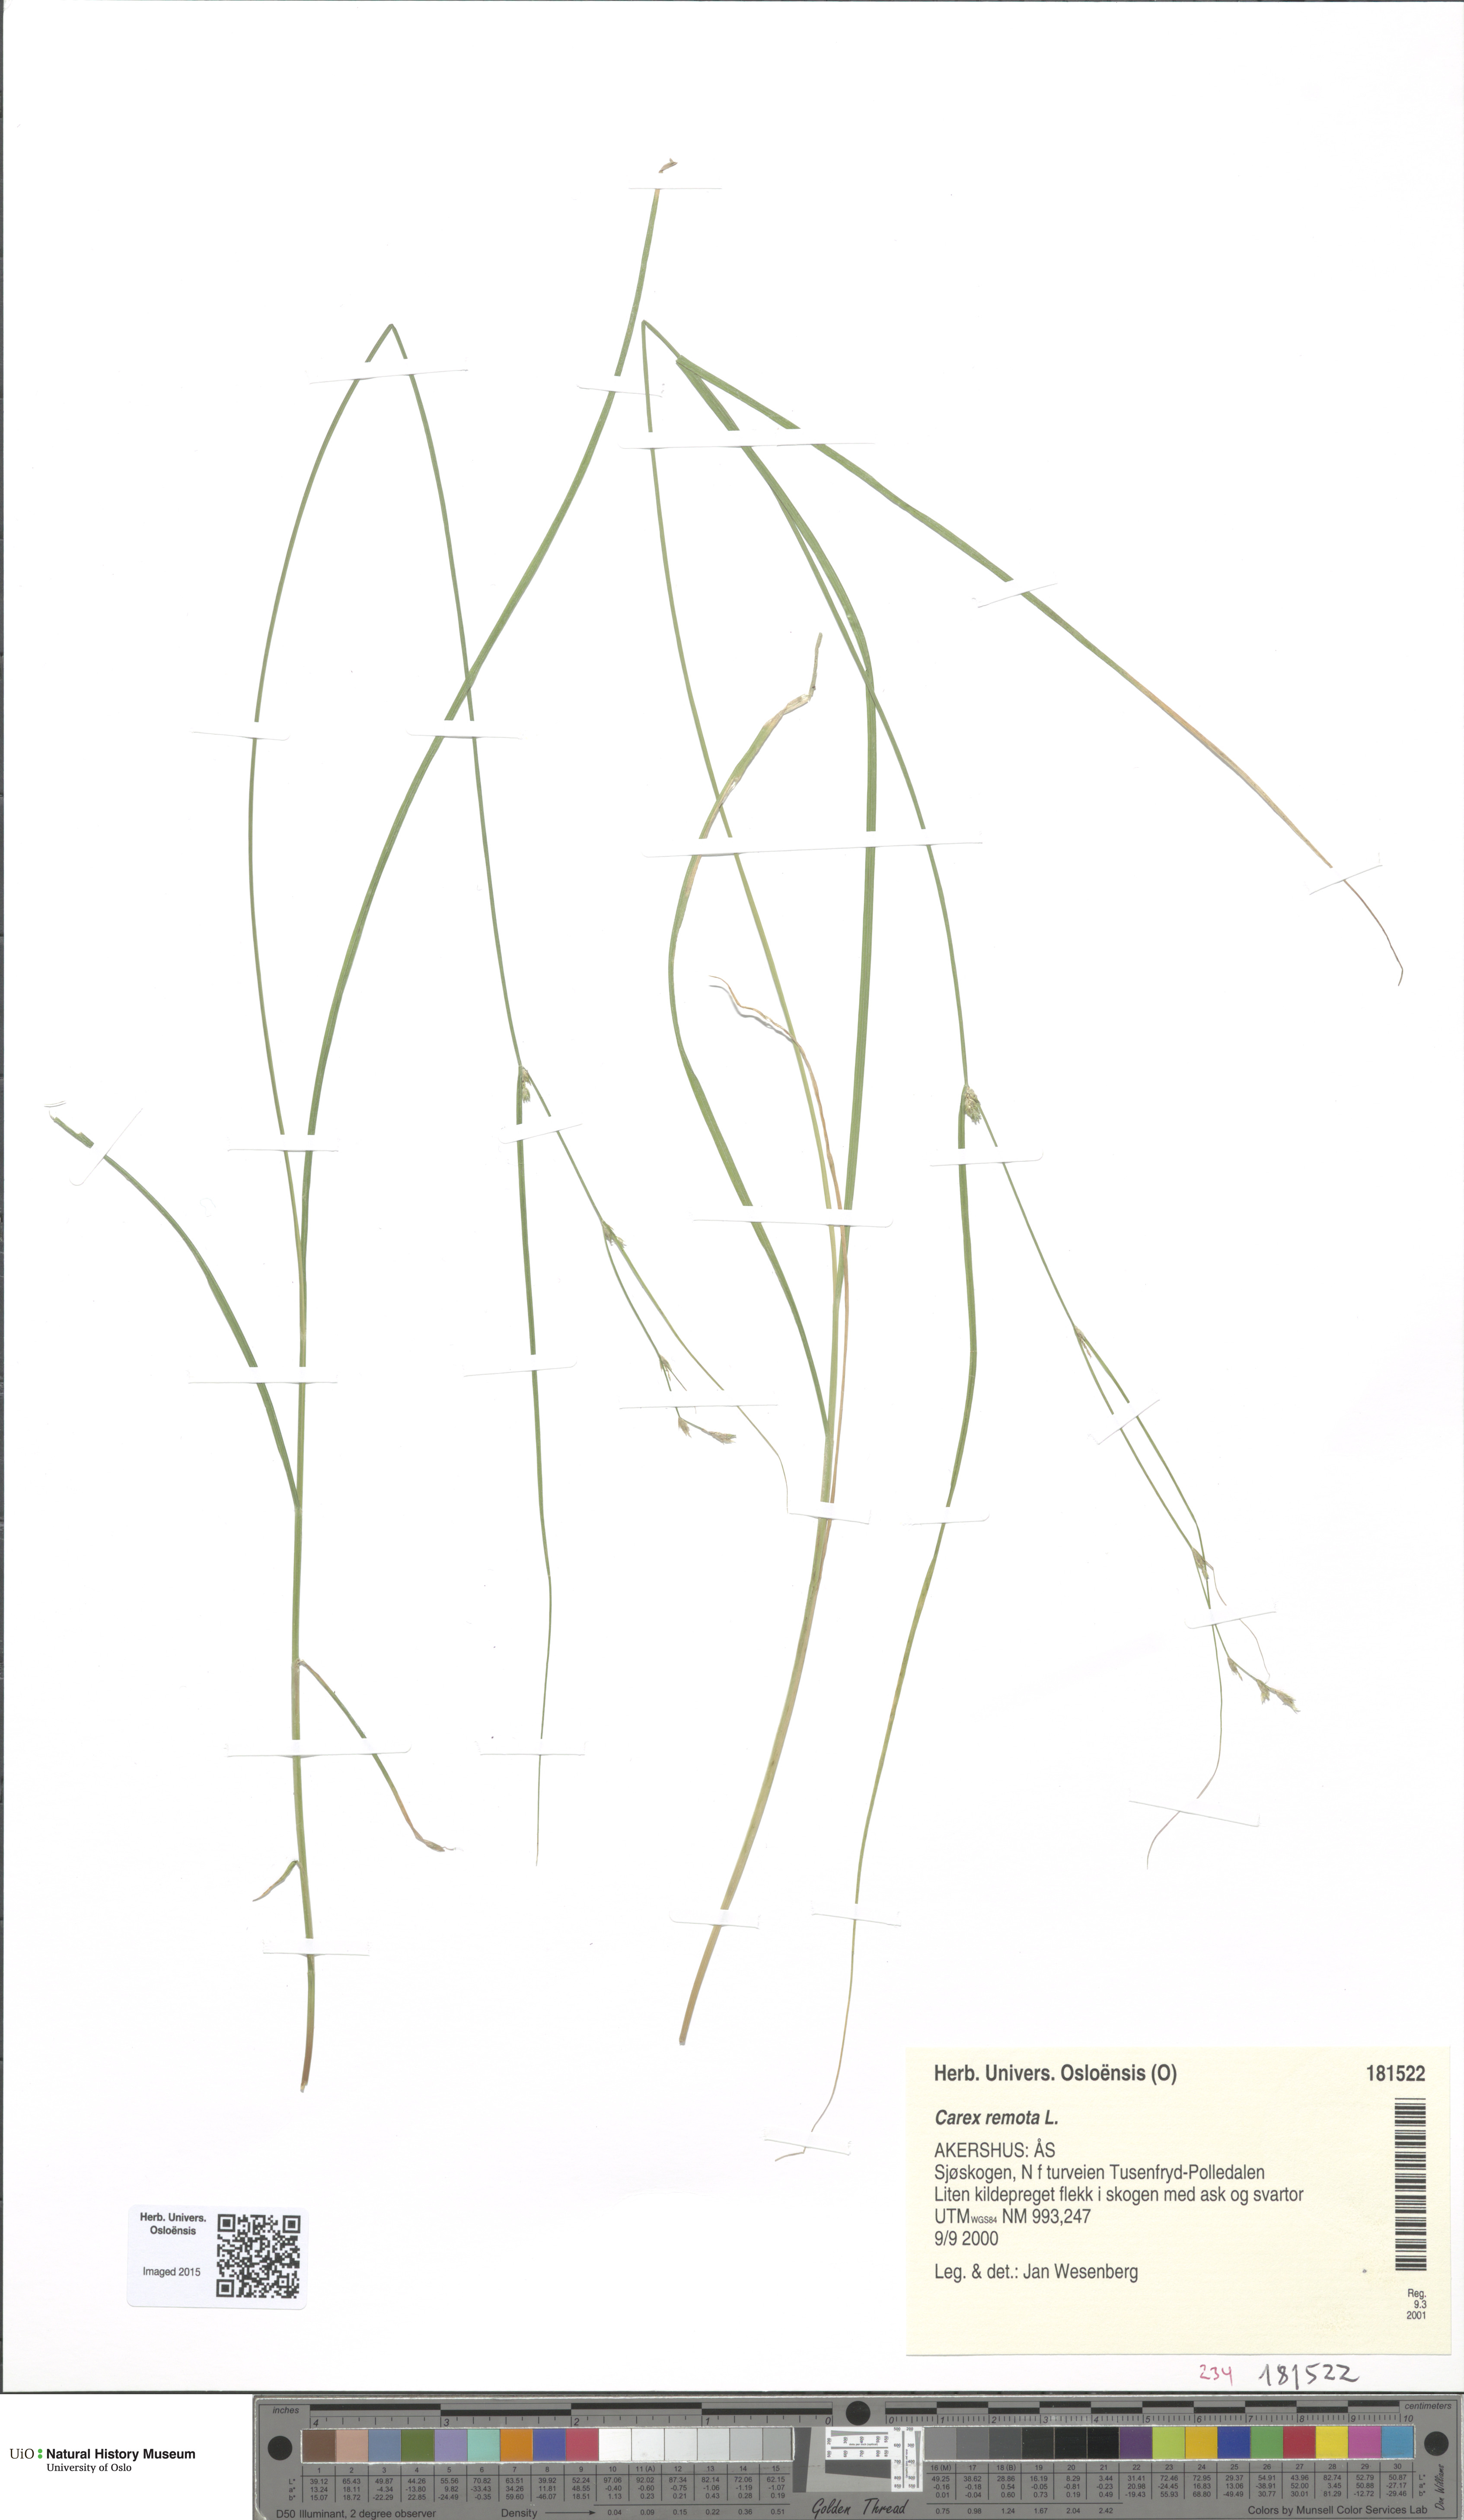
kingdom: Plantae
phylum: Tracheophyta
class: Liliopsida
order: Poales
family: Cyperaceae
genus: Carex
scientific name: Carex remota
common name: Remote sedge
